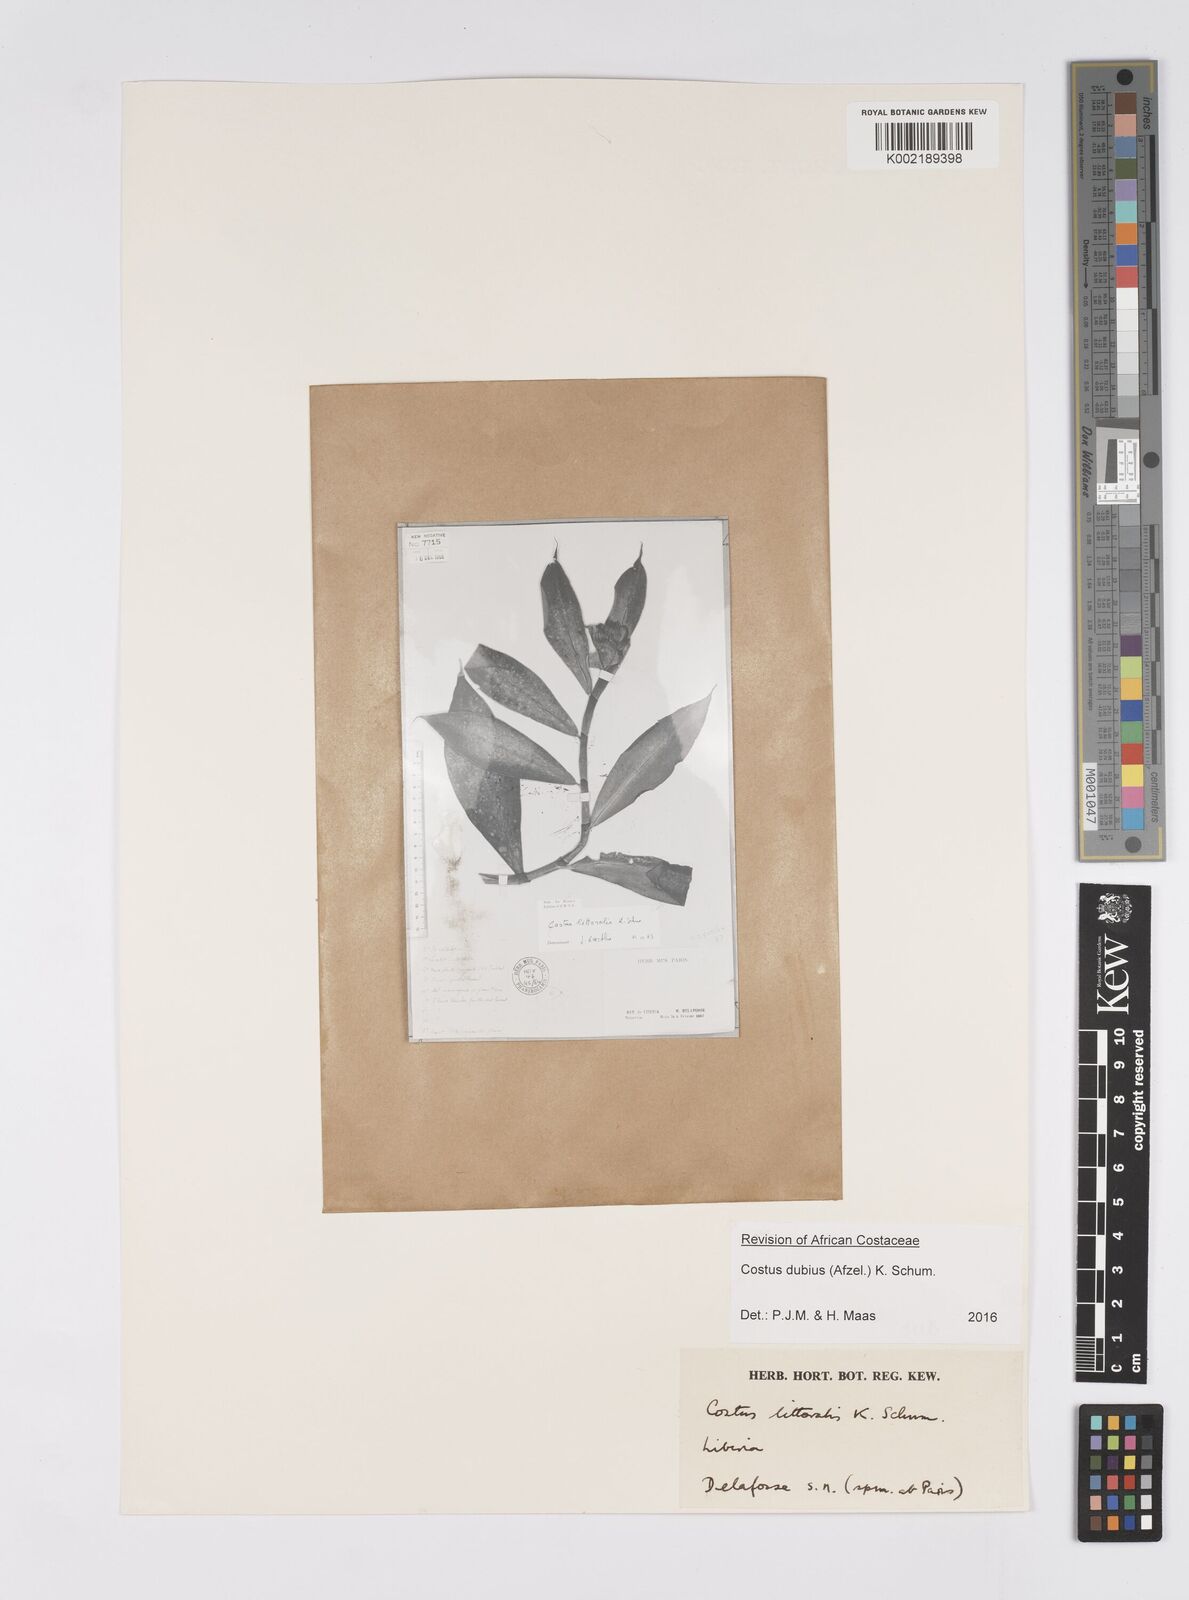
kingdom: Plantae
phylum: Tracheophyta
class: Liliopsida
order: Zingiberales
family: Costaceae
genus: Costus
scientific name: Costus dubius
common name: Costus
